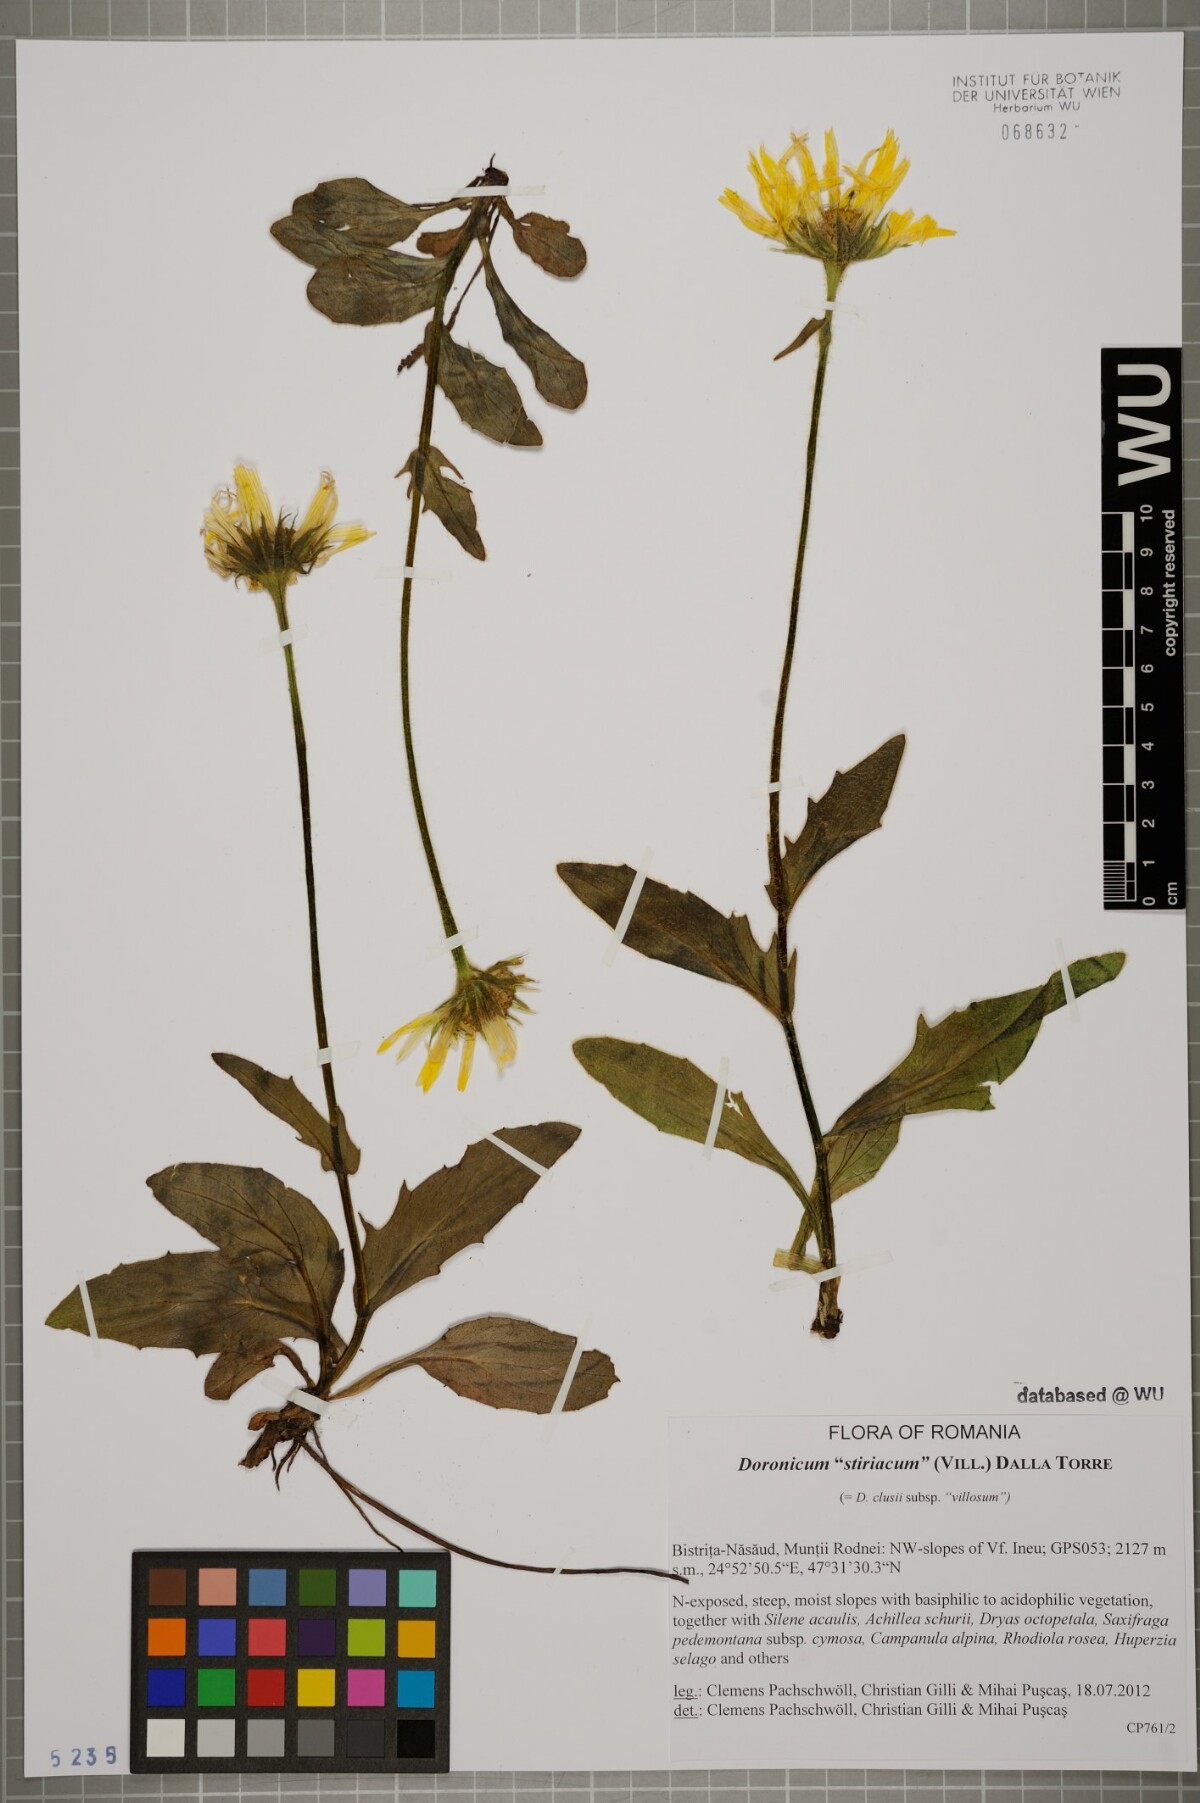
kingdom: Plantae
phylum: Tracheophyta
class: Magnoliopsida
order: Asterales
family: Asteraceae
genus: Doronicum
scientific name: Doronicum clusii
